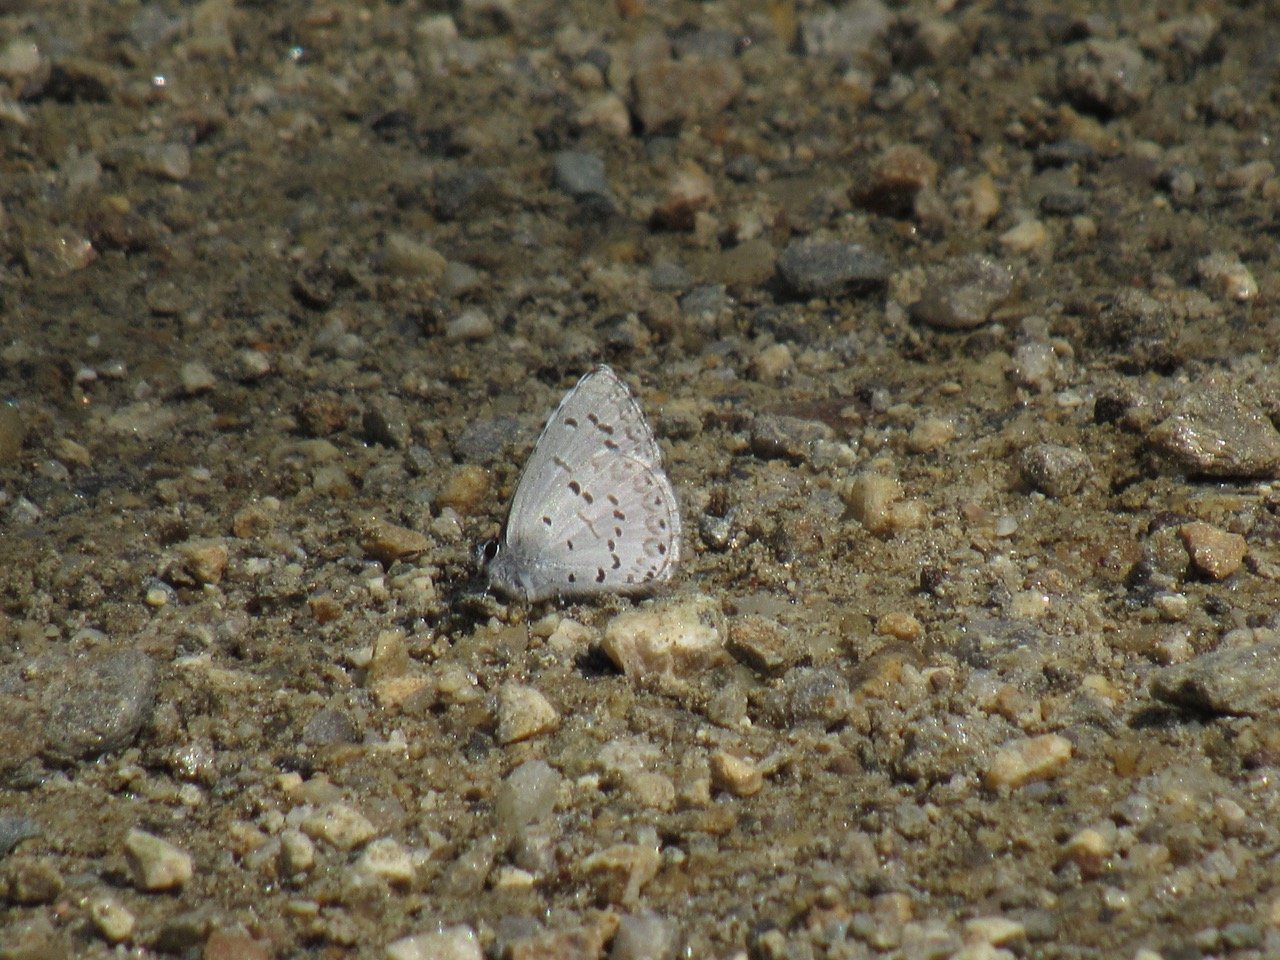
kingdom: Animalia
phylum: Arthropoda
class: Insecta
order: Lepidoptera
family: Lycaenidae
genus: Celastrina
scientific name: Celastrina lucia
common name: Northern Spring Azure
